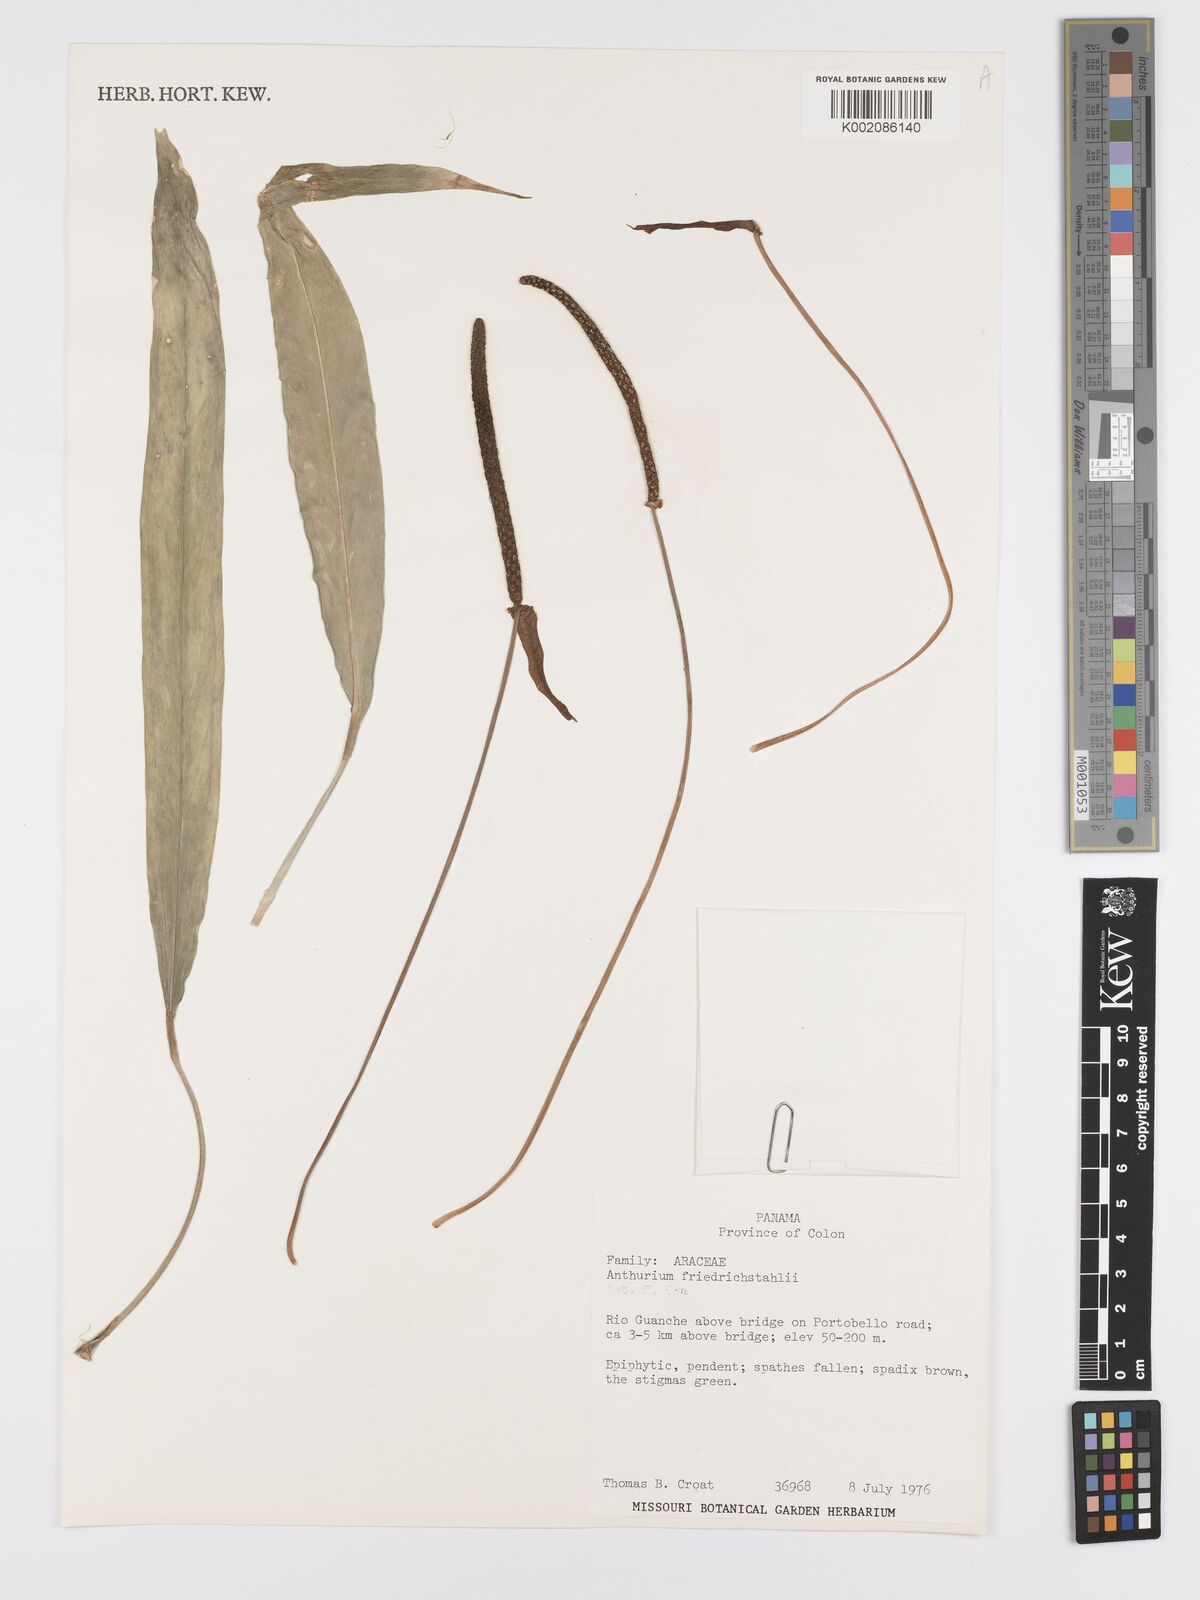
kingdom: Plantae
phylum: Tracheophyta
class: Liliopsida
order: Alismatales
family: Araceae
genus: Anthurium
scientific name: Anthurium friedrichsthalii
